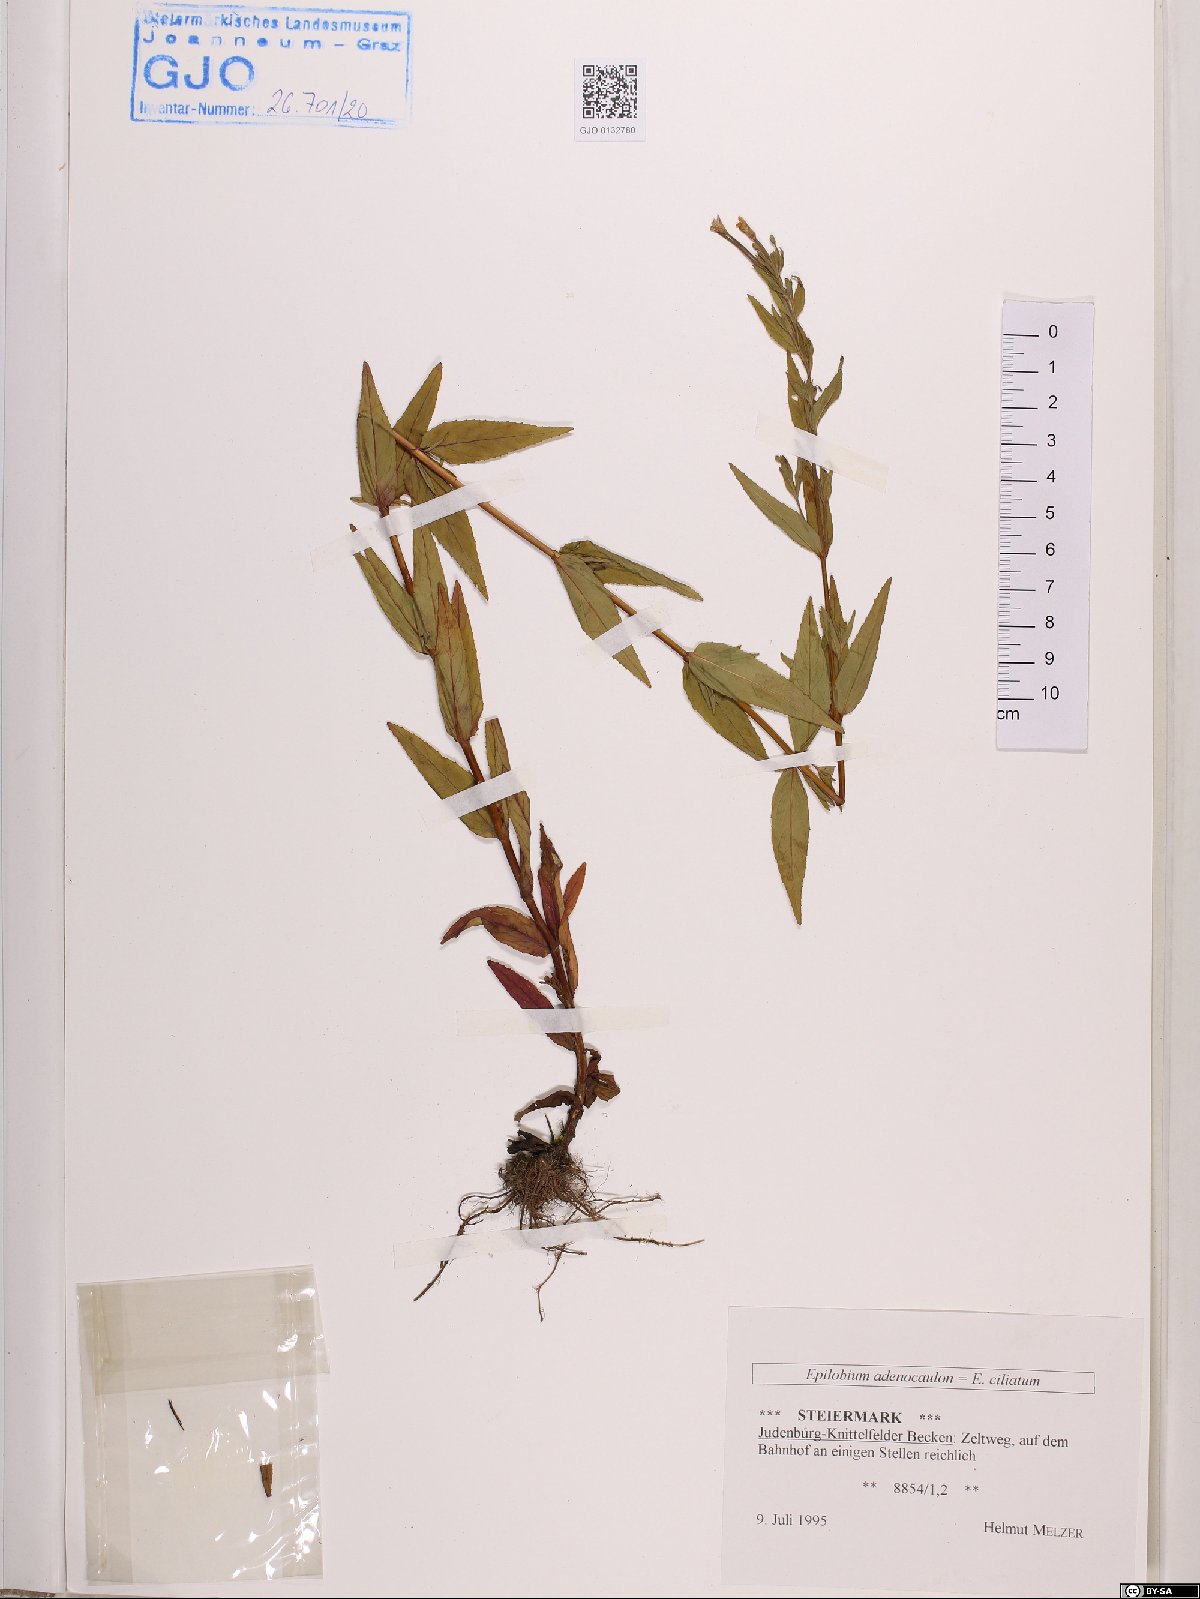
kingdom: Plantae
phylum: Tracheophyta
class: Magnoliopsida
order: Myrtales
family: Onagraceae
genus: Epilobium
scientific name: Epilobium ciliatum
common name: American willowherb
